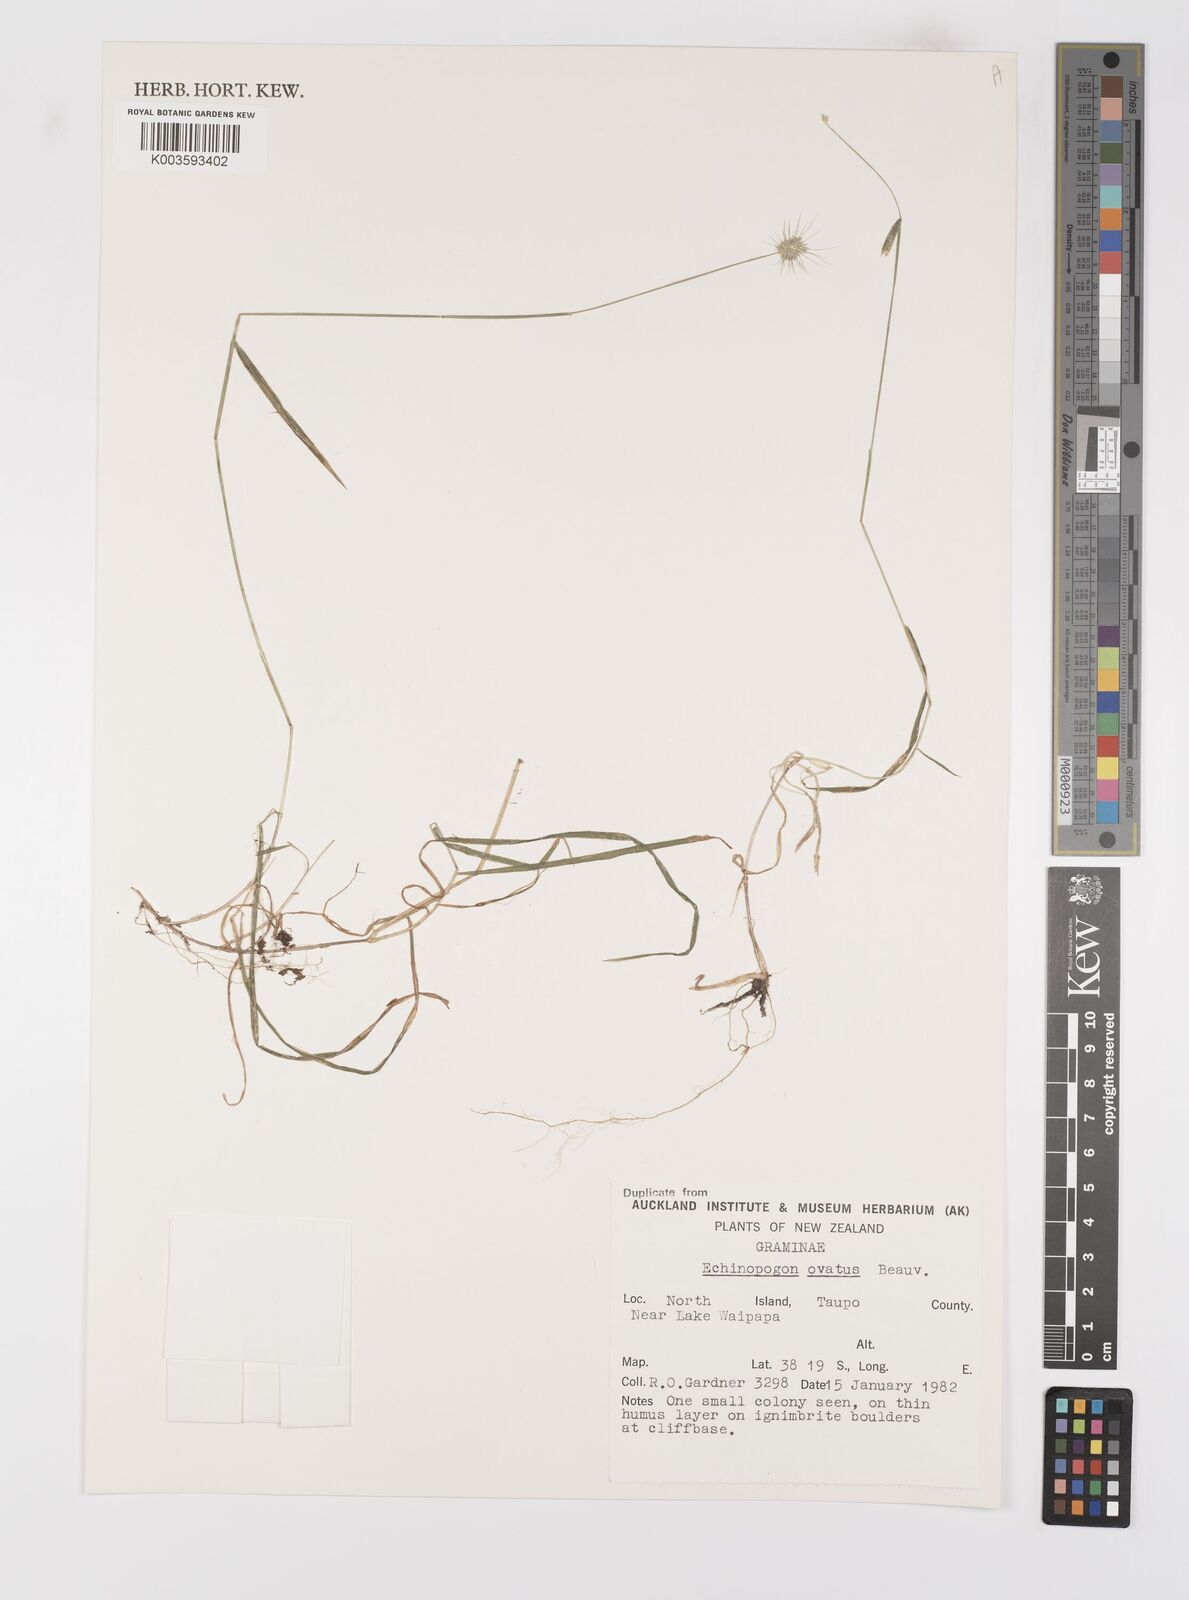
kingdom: Plantae
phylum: Tracheophyta
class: Liliopsida
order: Poales
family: Poaceae
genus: Echinopogon
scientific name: Echinopogon ovatus
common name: Hedgehog-grass
